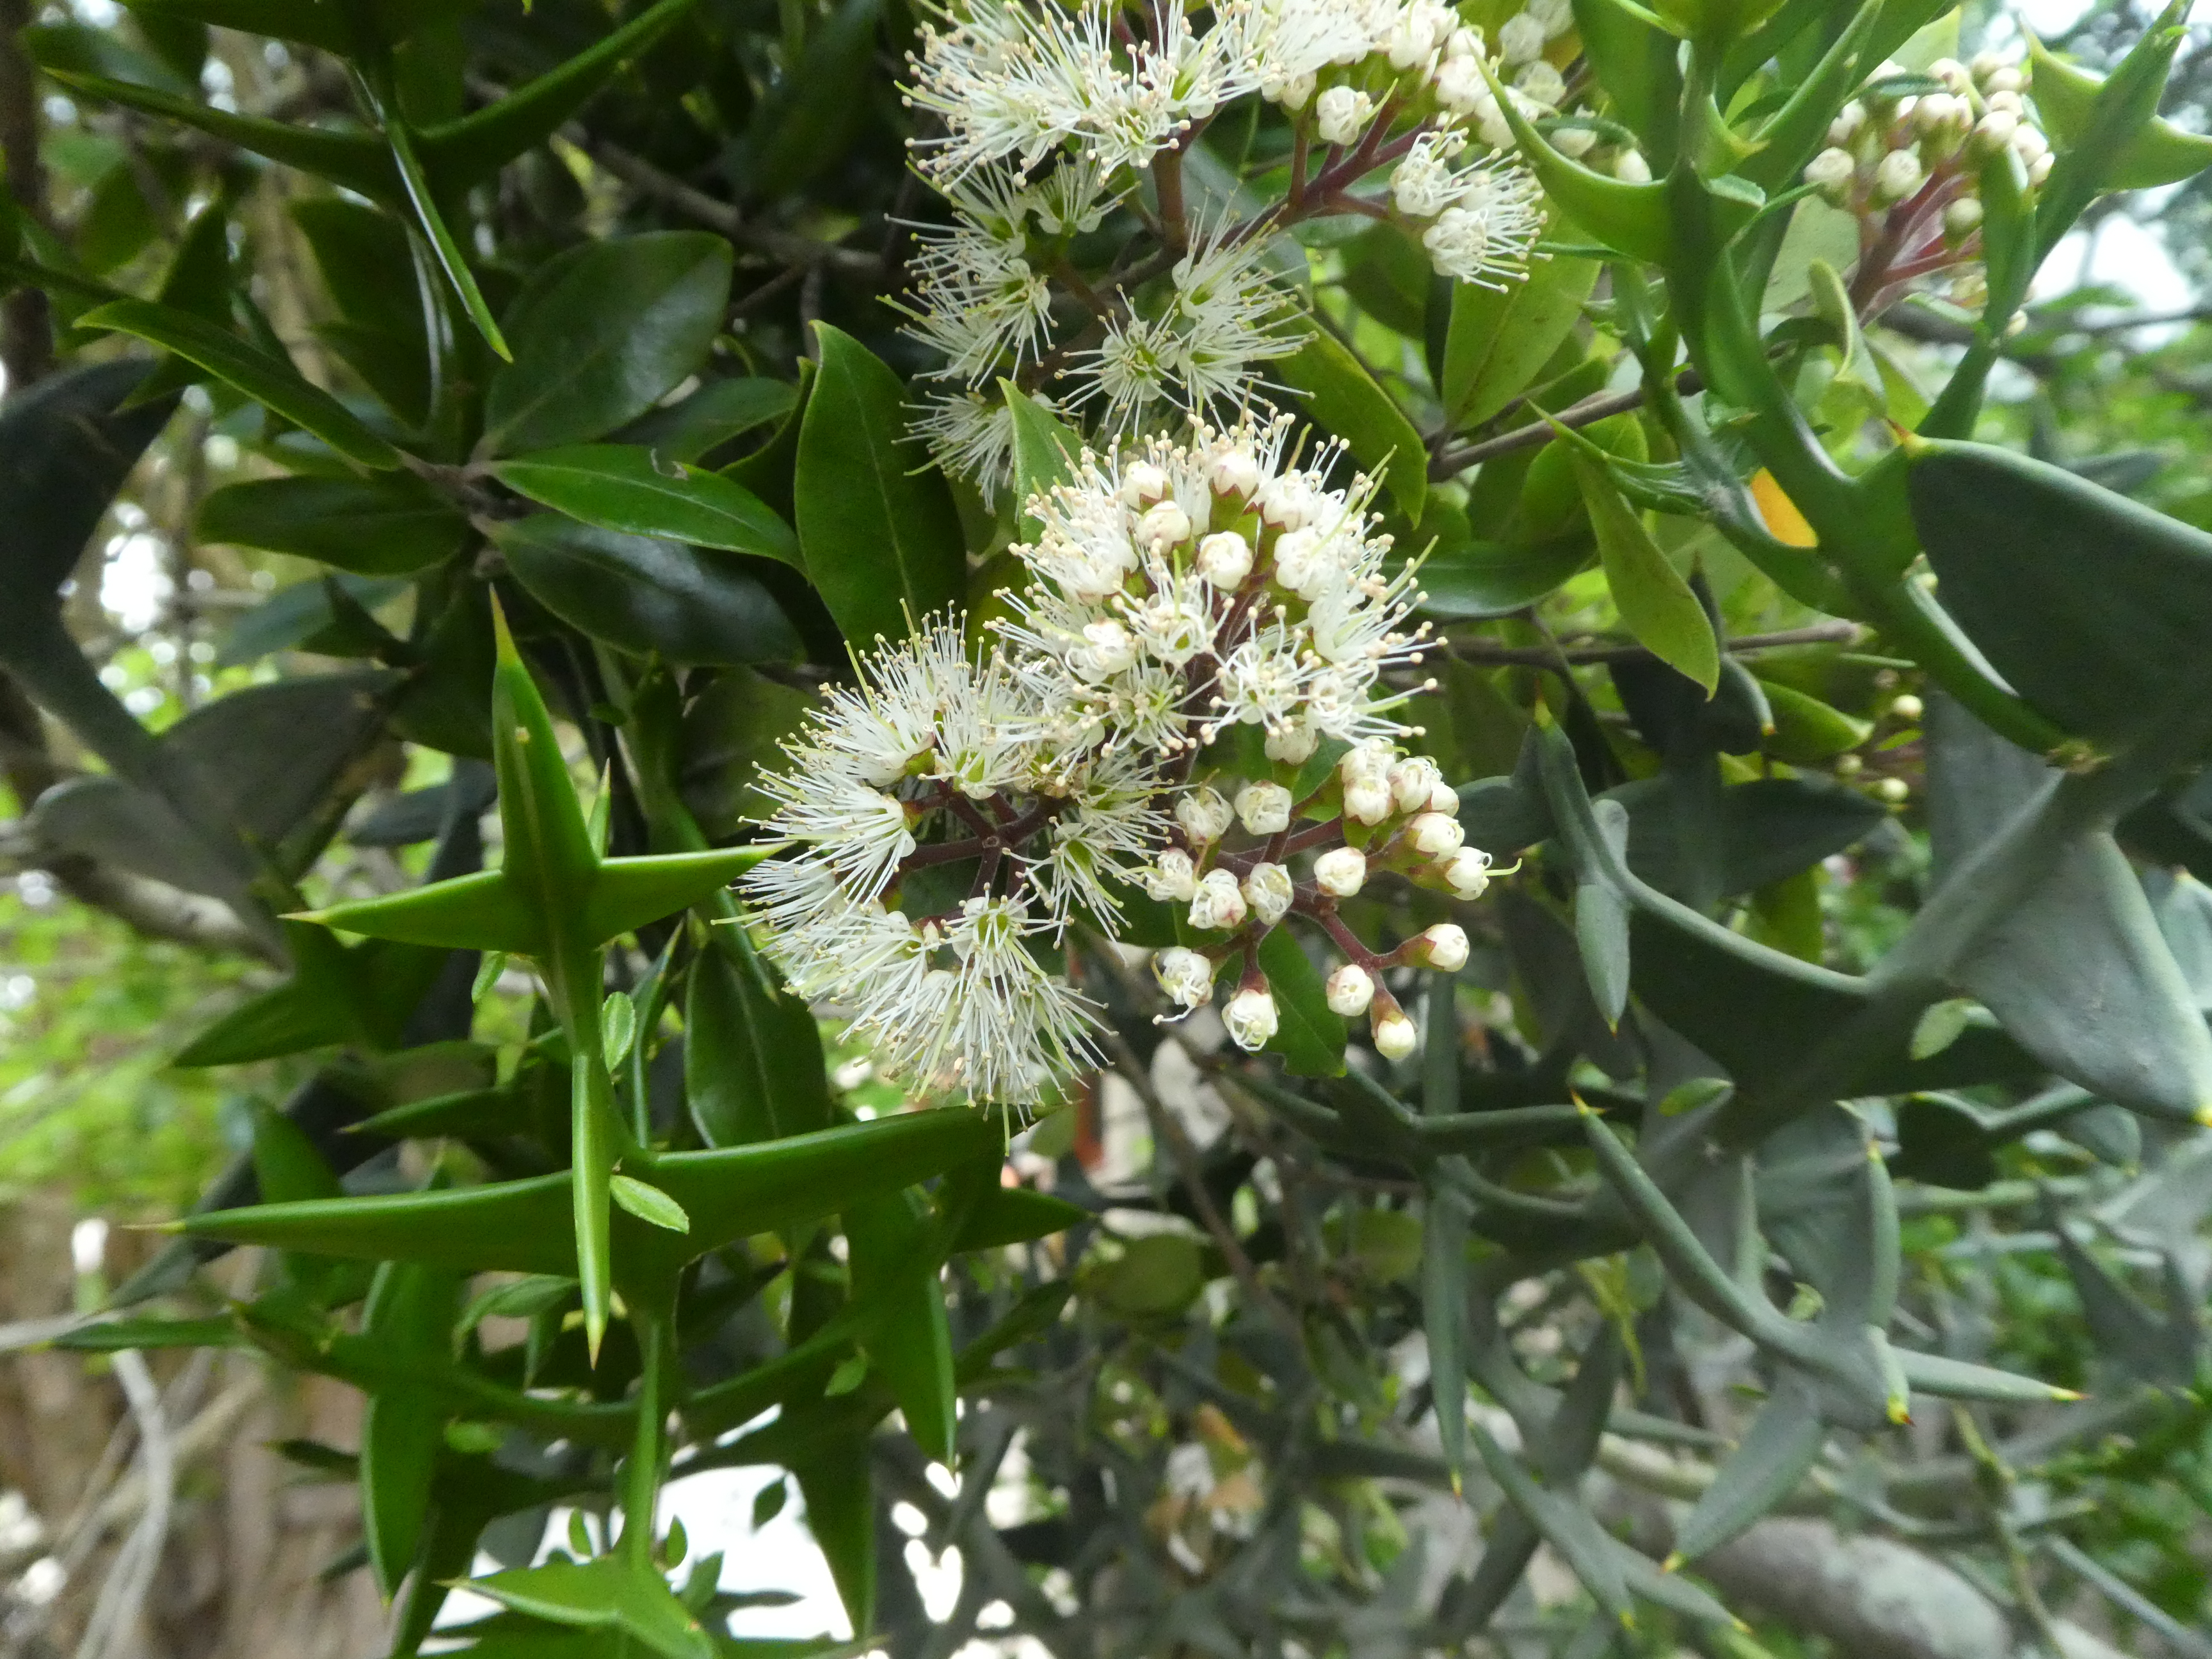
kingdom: Plantae
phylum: Tracheophyta
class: Magnoliopsida
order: Myrtales
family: Myrtaceae
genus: Metrosideros
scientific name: Metrosideros bartlettii
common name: Bartlett's rata
